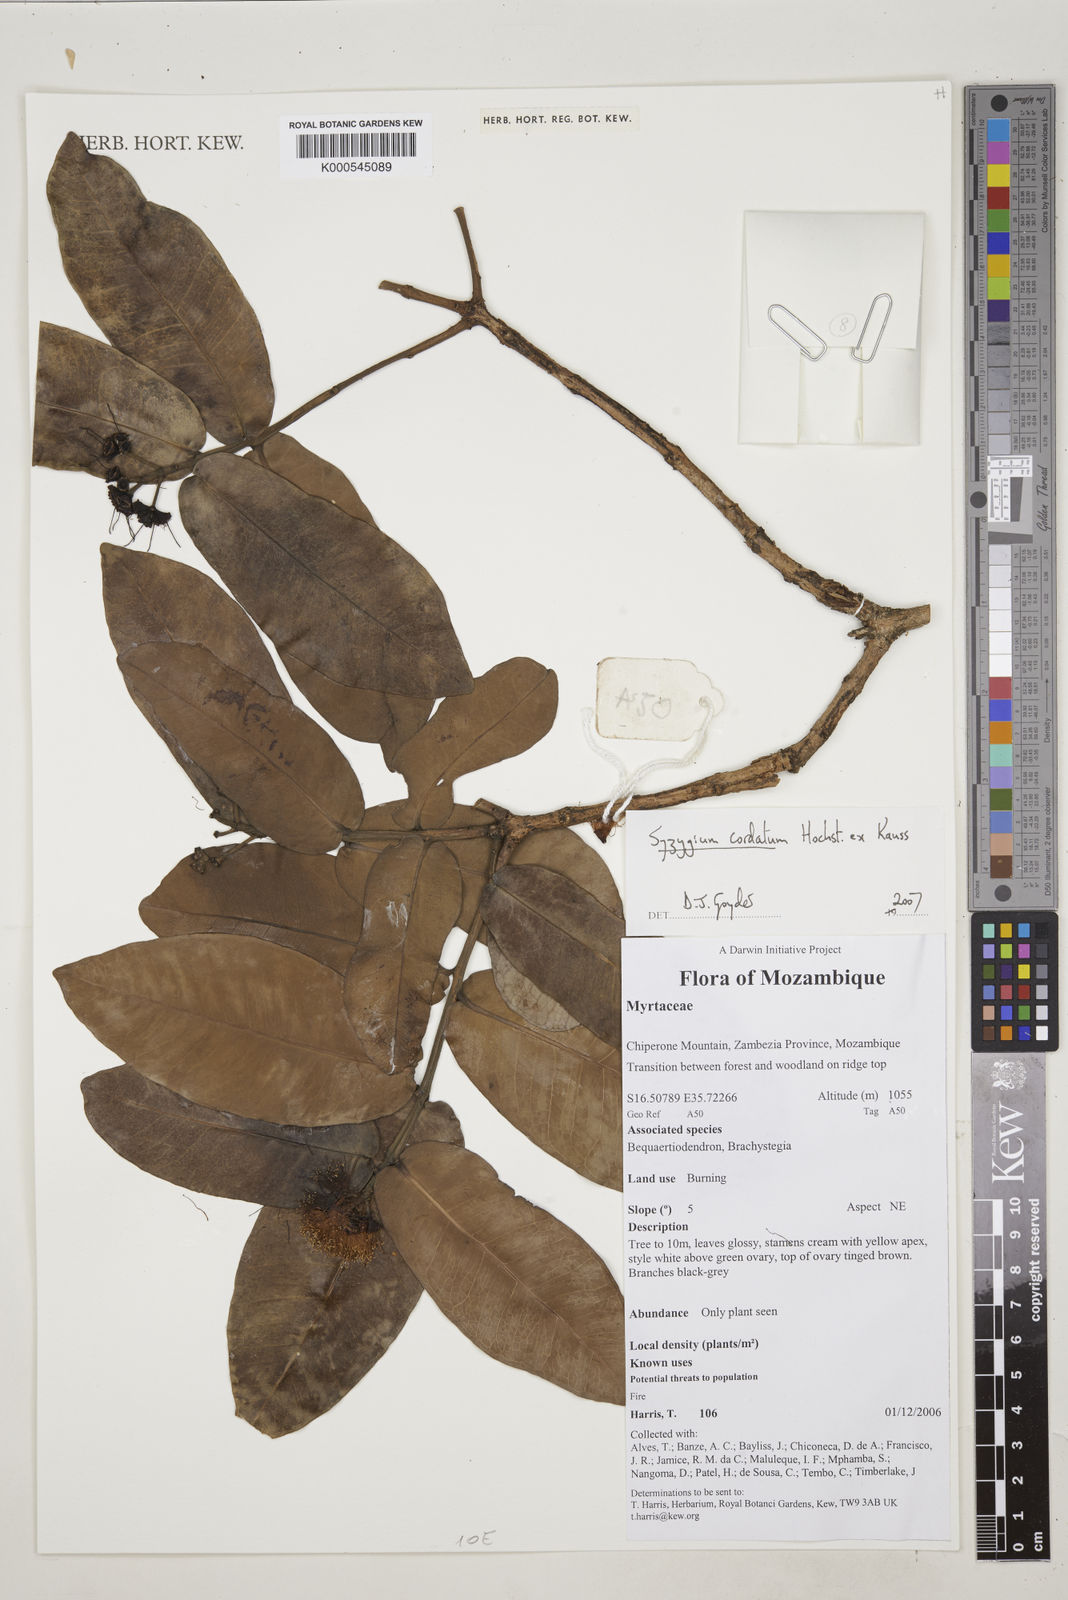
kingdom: Plantae
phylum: Tracheophyta
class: Magnoliopsida
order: Myrtales
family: Myrtaceae
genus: Syzygium
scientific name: Syzygium
